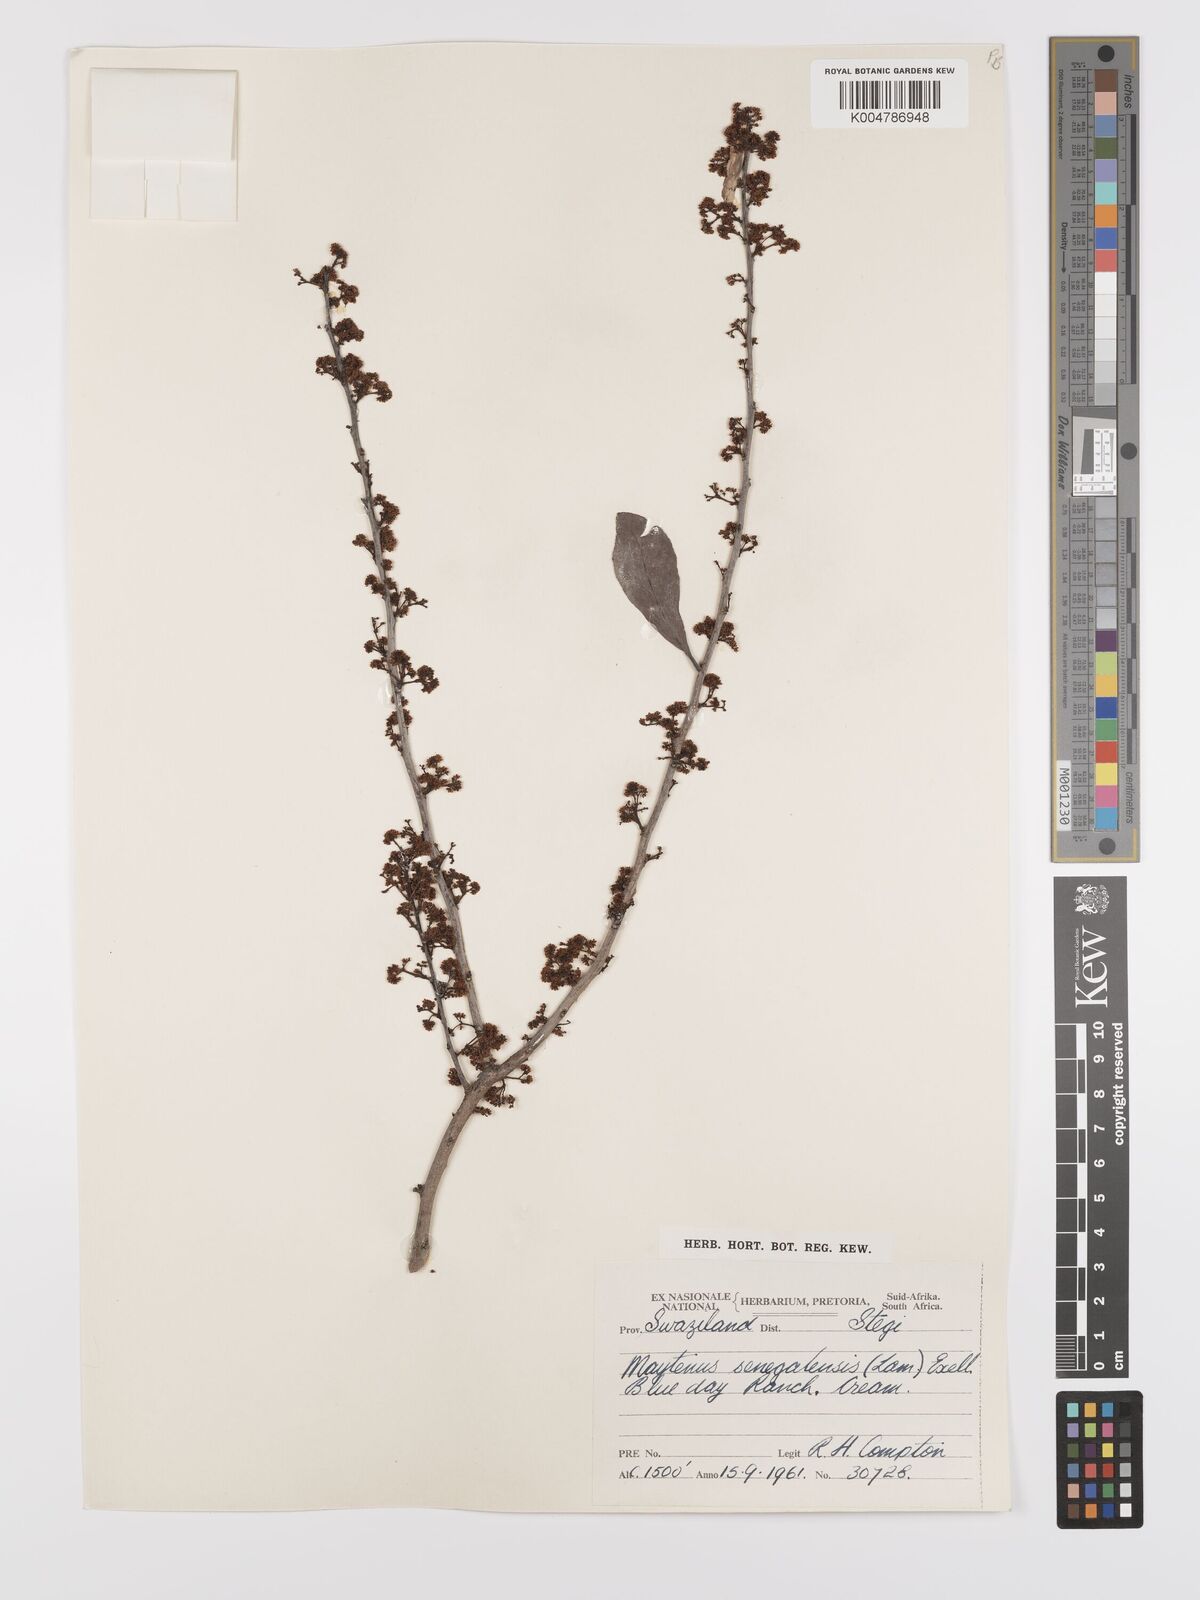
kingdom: Plantae
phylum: Tracheophyta
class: Magnoliopsida
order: Celastrales
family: Celastraceae
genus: Gymnosporia
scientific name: Gymnosporia senegalensis
